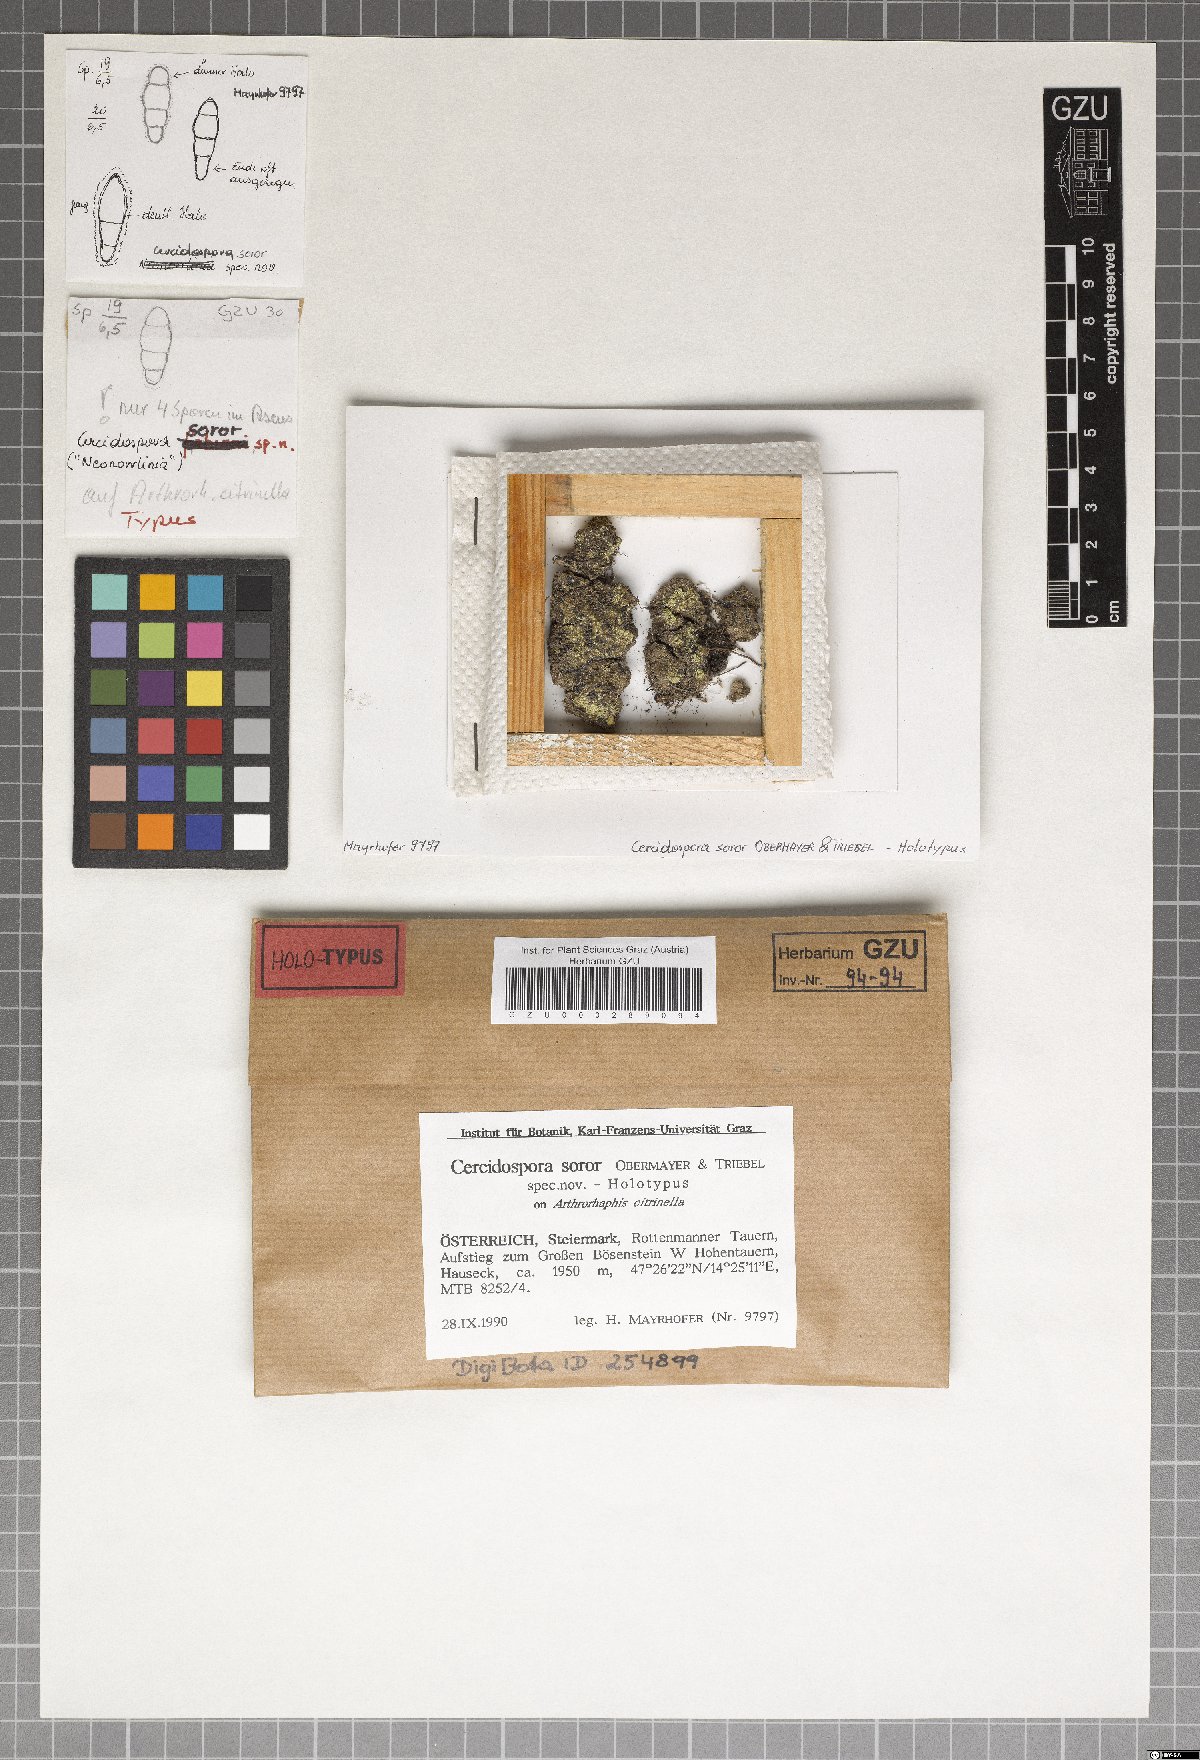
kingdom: Fungi
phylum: Ascomycota
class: Dothideomycetes
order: Dothideales
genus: Cercidospora
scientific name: Cercidospora soror
